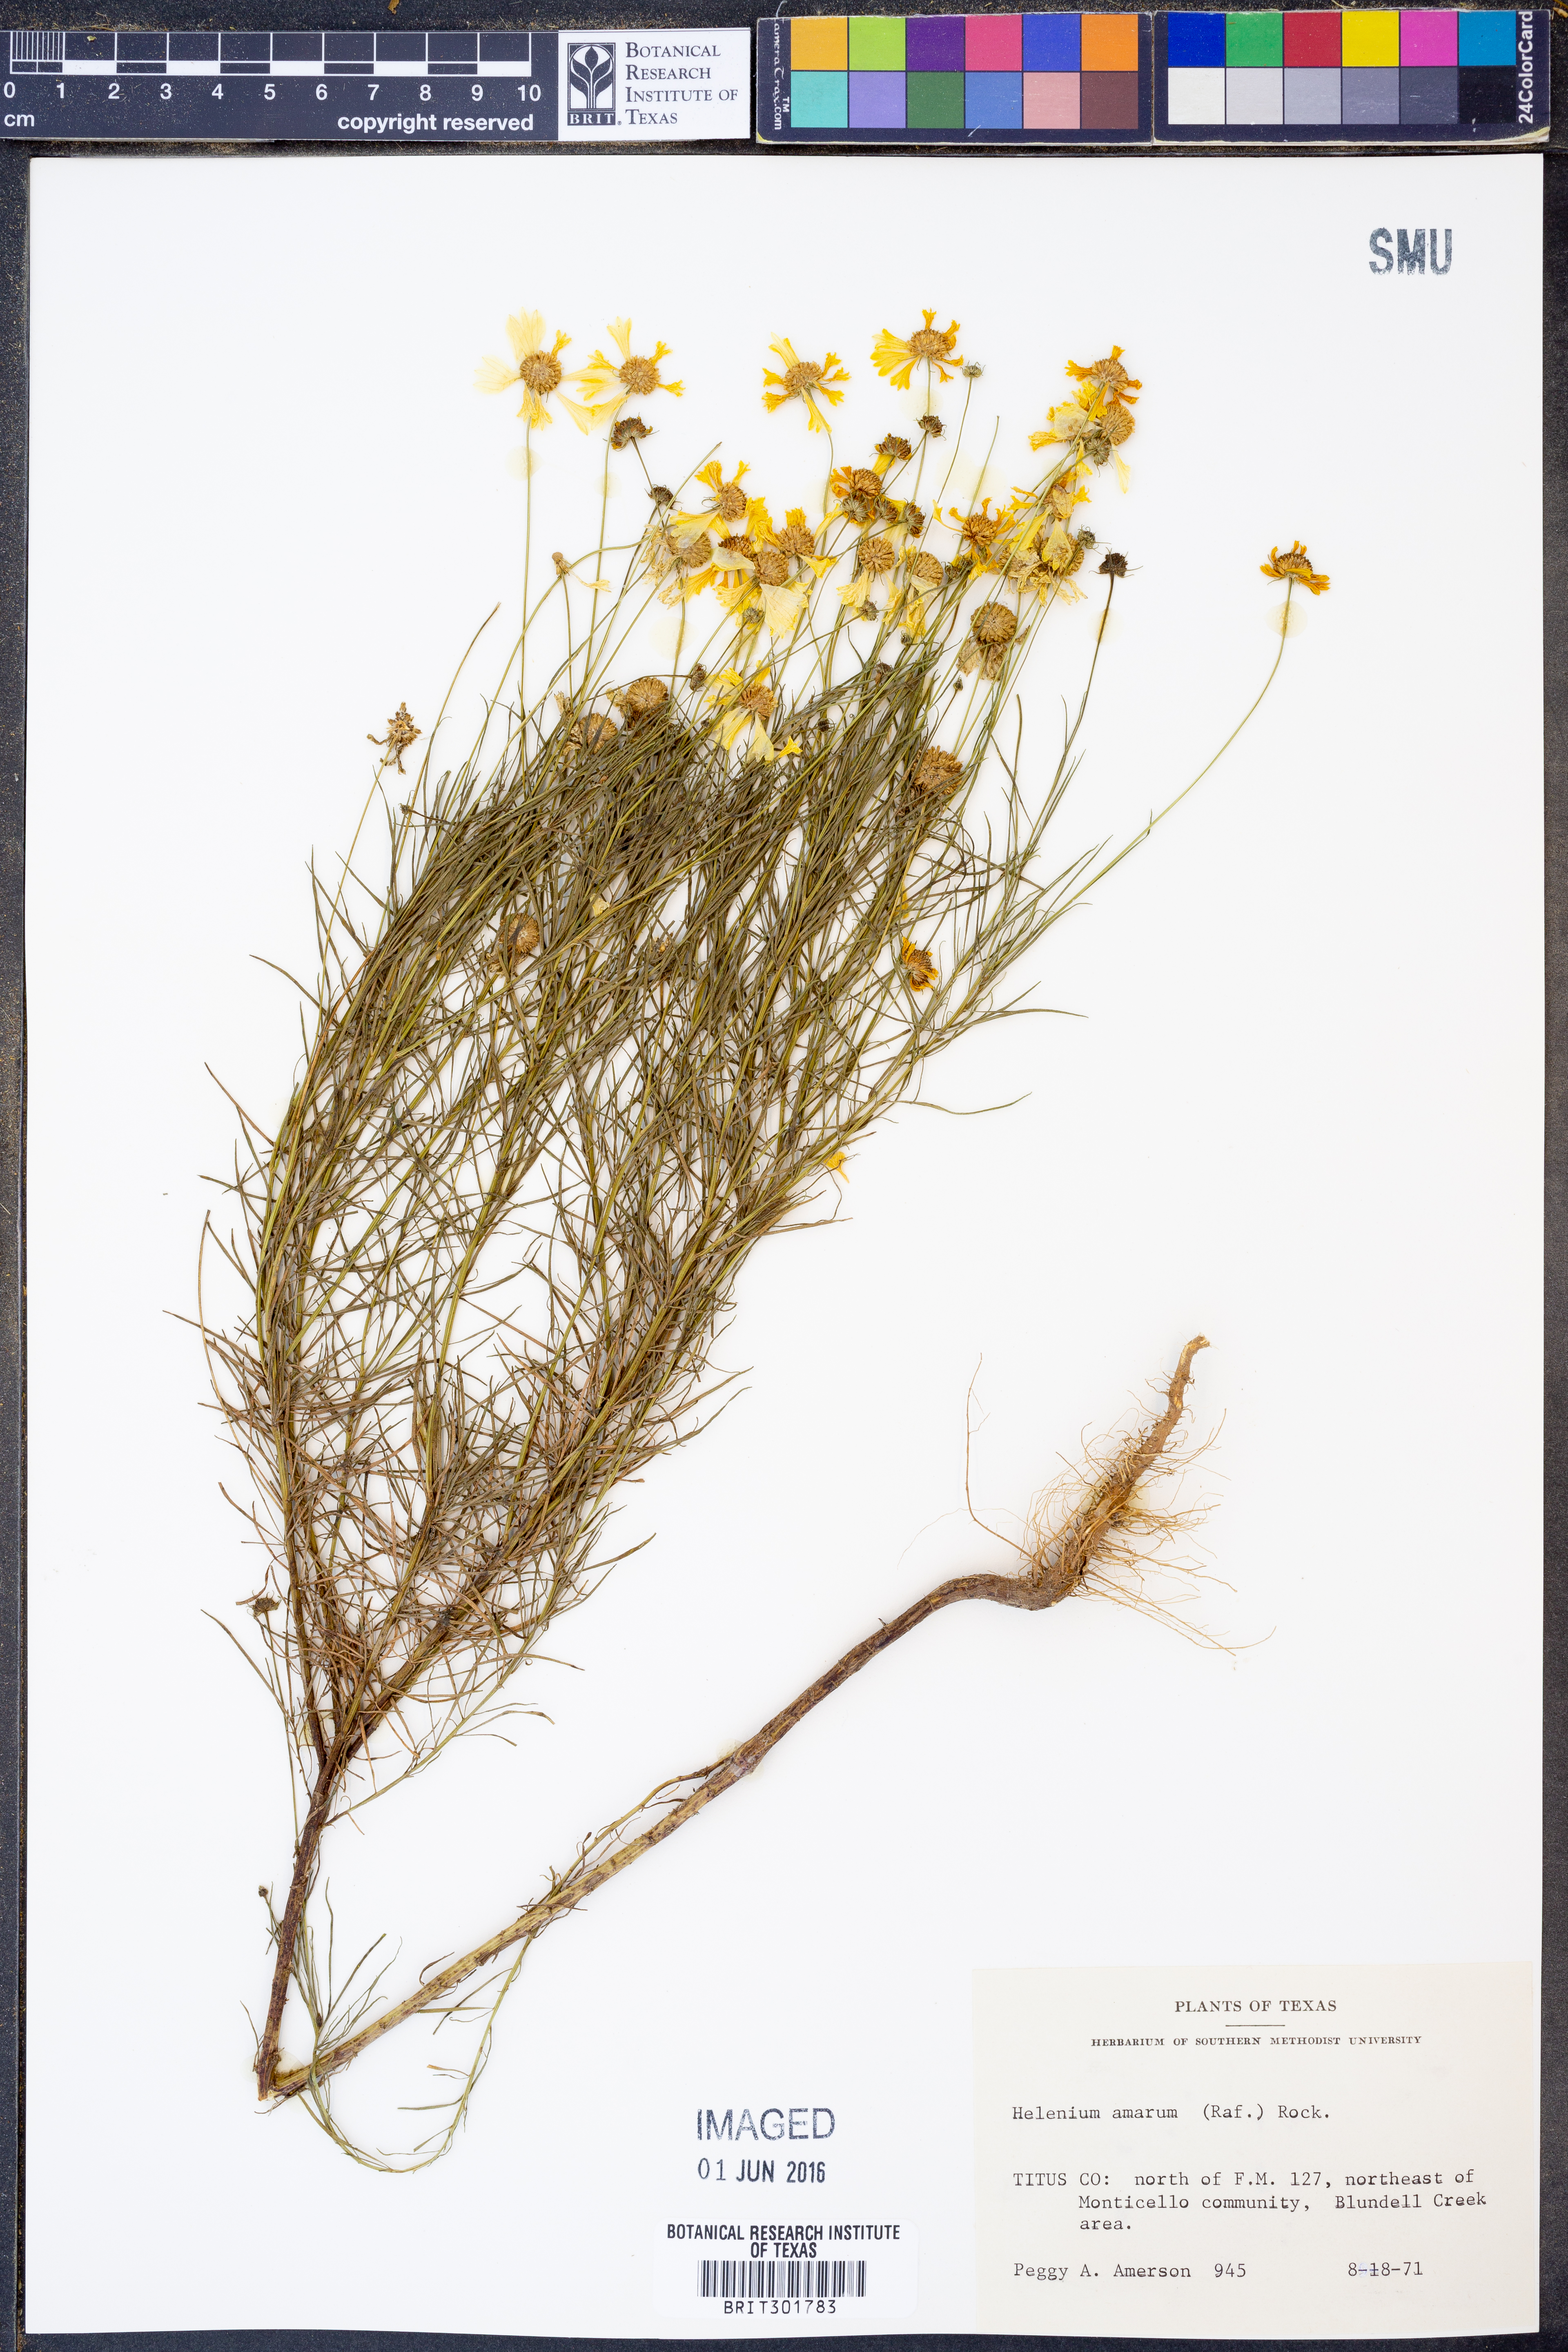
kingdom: Plantae
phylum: Tracheophyta
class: Magnoliopsida
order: Asterales
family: Asteraceae
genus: Helenium
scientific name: Helenium amarum
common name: Bitter sneezeweed
